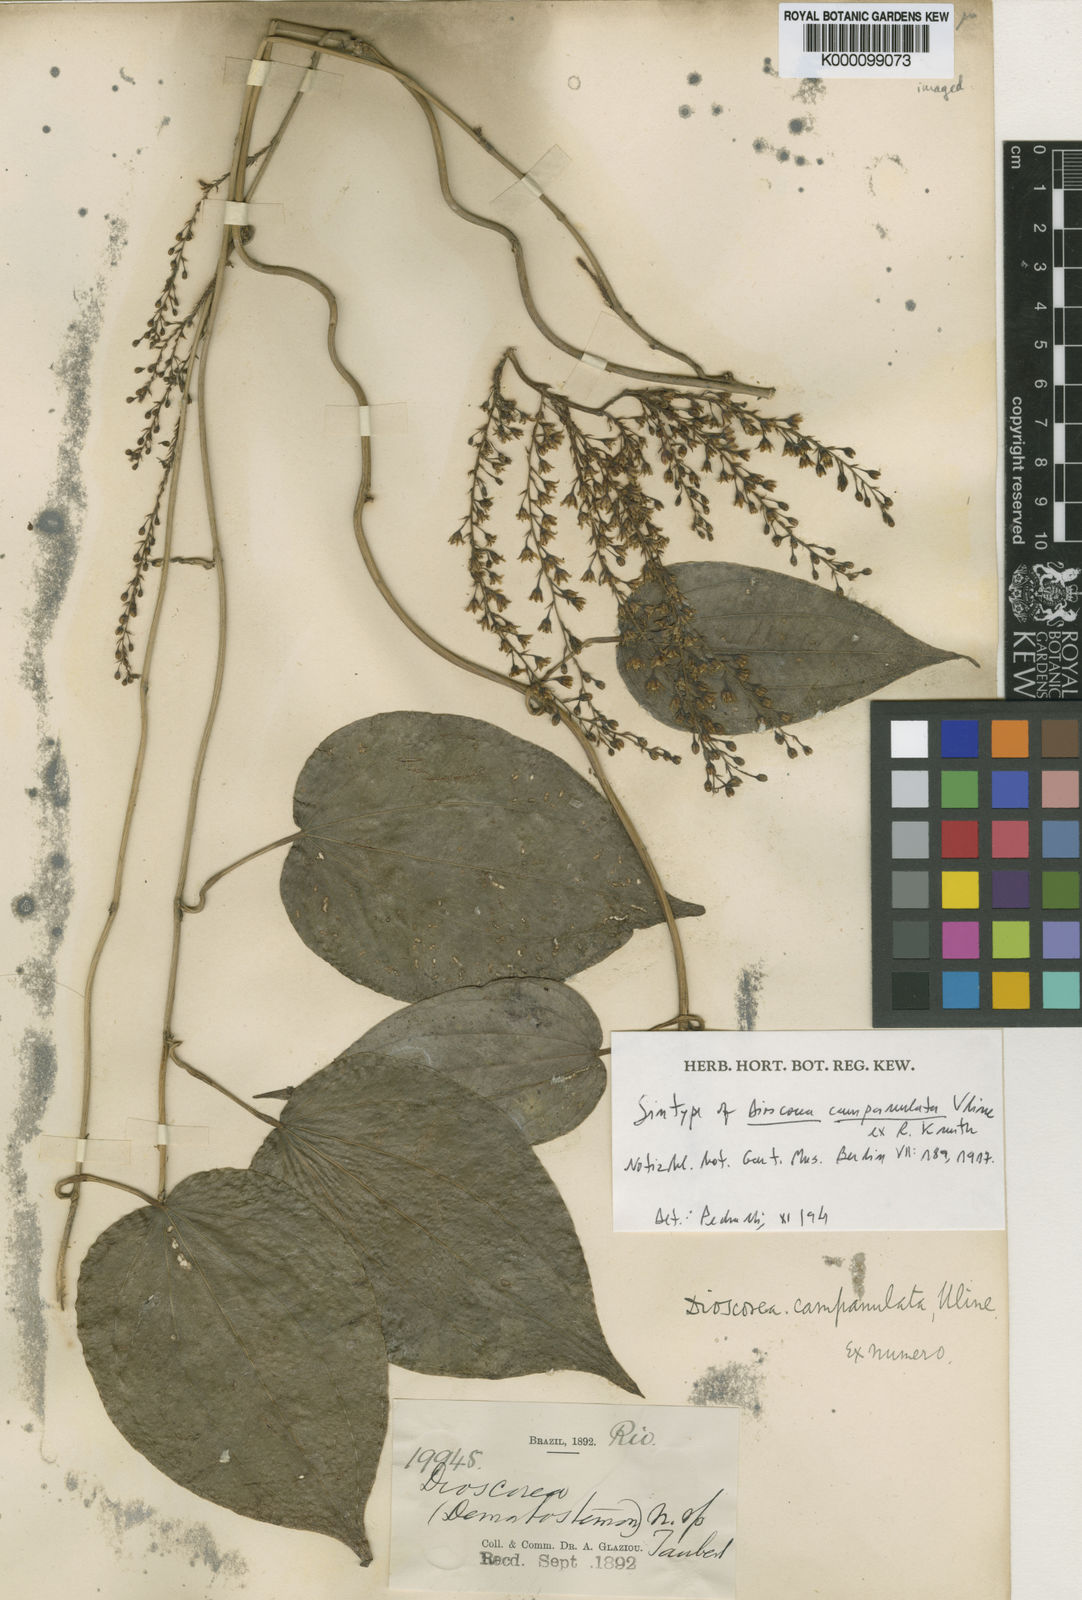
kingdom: Plantae
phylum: Tracheophyta
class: Liliopsida
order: Dioscoreales
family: Dioscoreaceae
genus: Dioscorea
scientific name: Dioscorea campanulata
